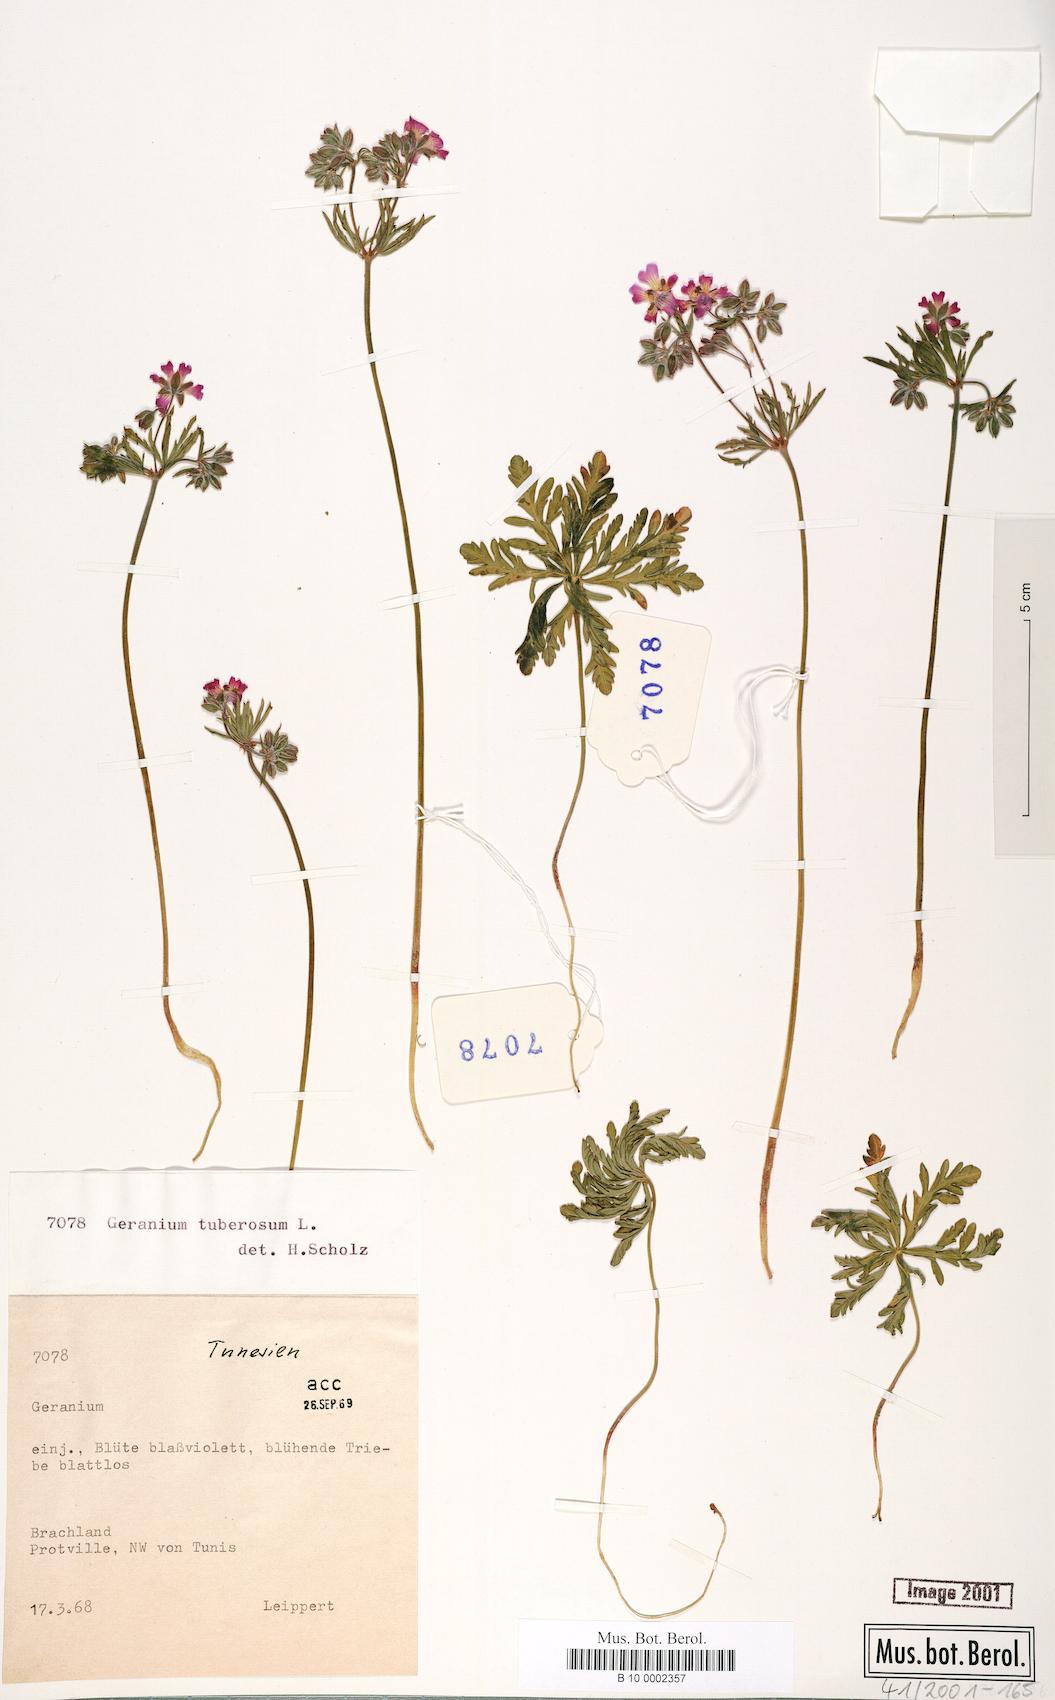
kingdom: Plantae
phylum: Tracheophyta
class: Magnoliopsida
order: Geraniales
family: Geraniaceae
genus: Geranium
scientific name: Geranium tuberosum
